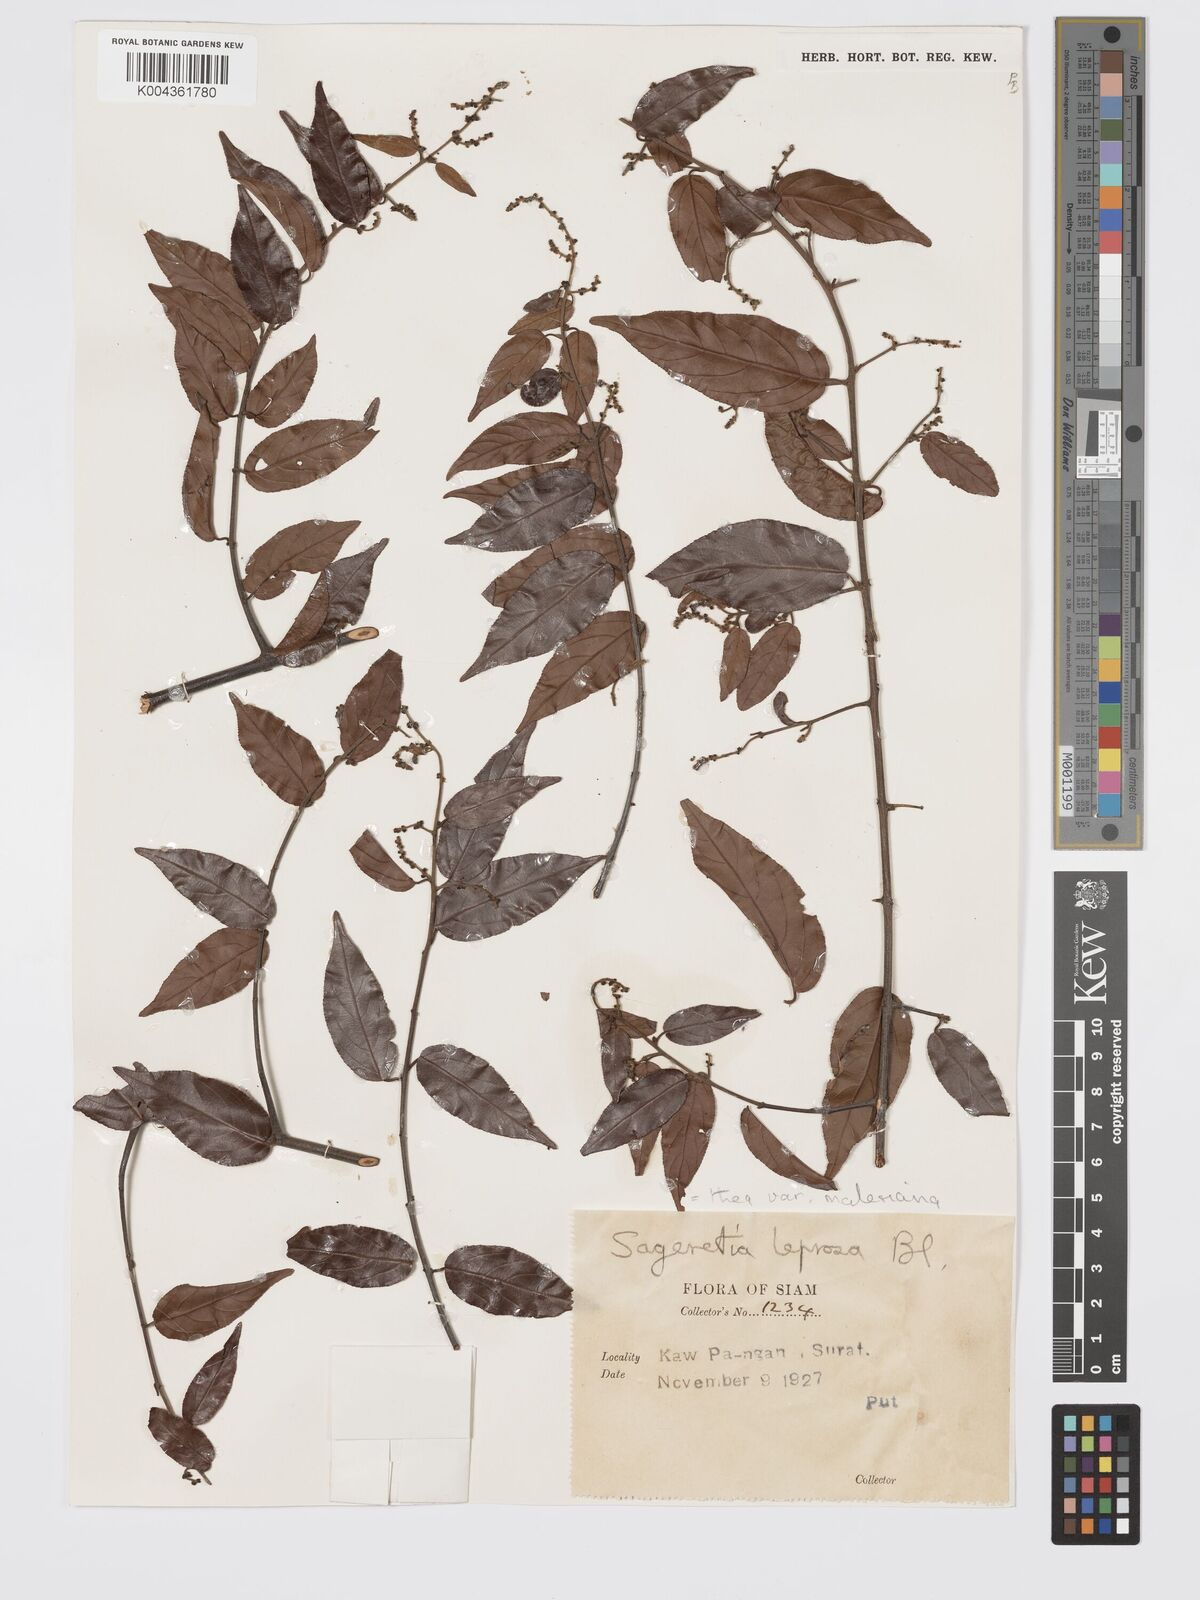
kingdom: Plantae
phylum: Tracheophyta
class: Magnoliopsida
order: Rosales
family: Rhamnaceae
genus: Sageretia
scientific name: Sageretia leprosa
